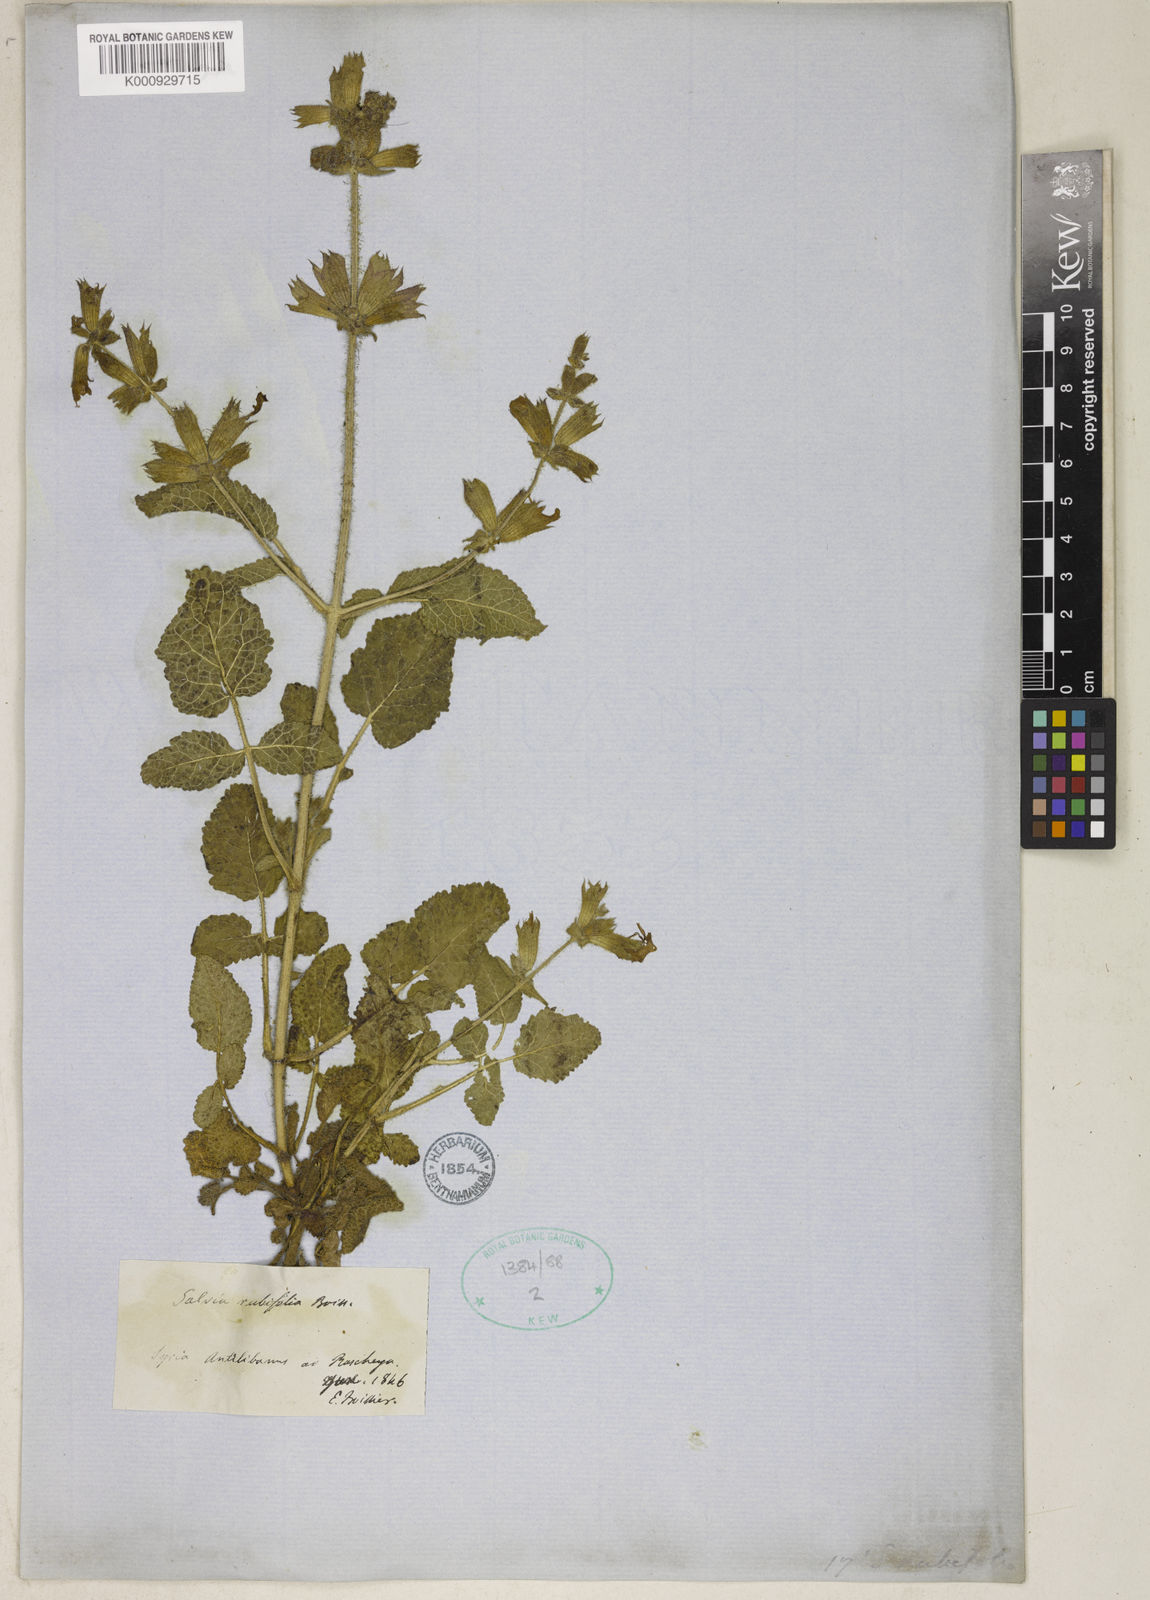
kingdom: Plantae
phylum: Tracheophyta
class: Magnoliopsida
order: Lamiales
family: Lamiaceae
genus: Salvia
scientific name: Salvia rubifolia
